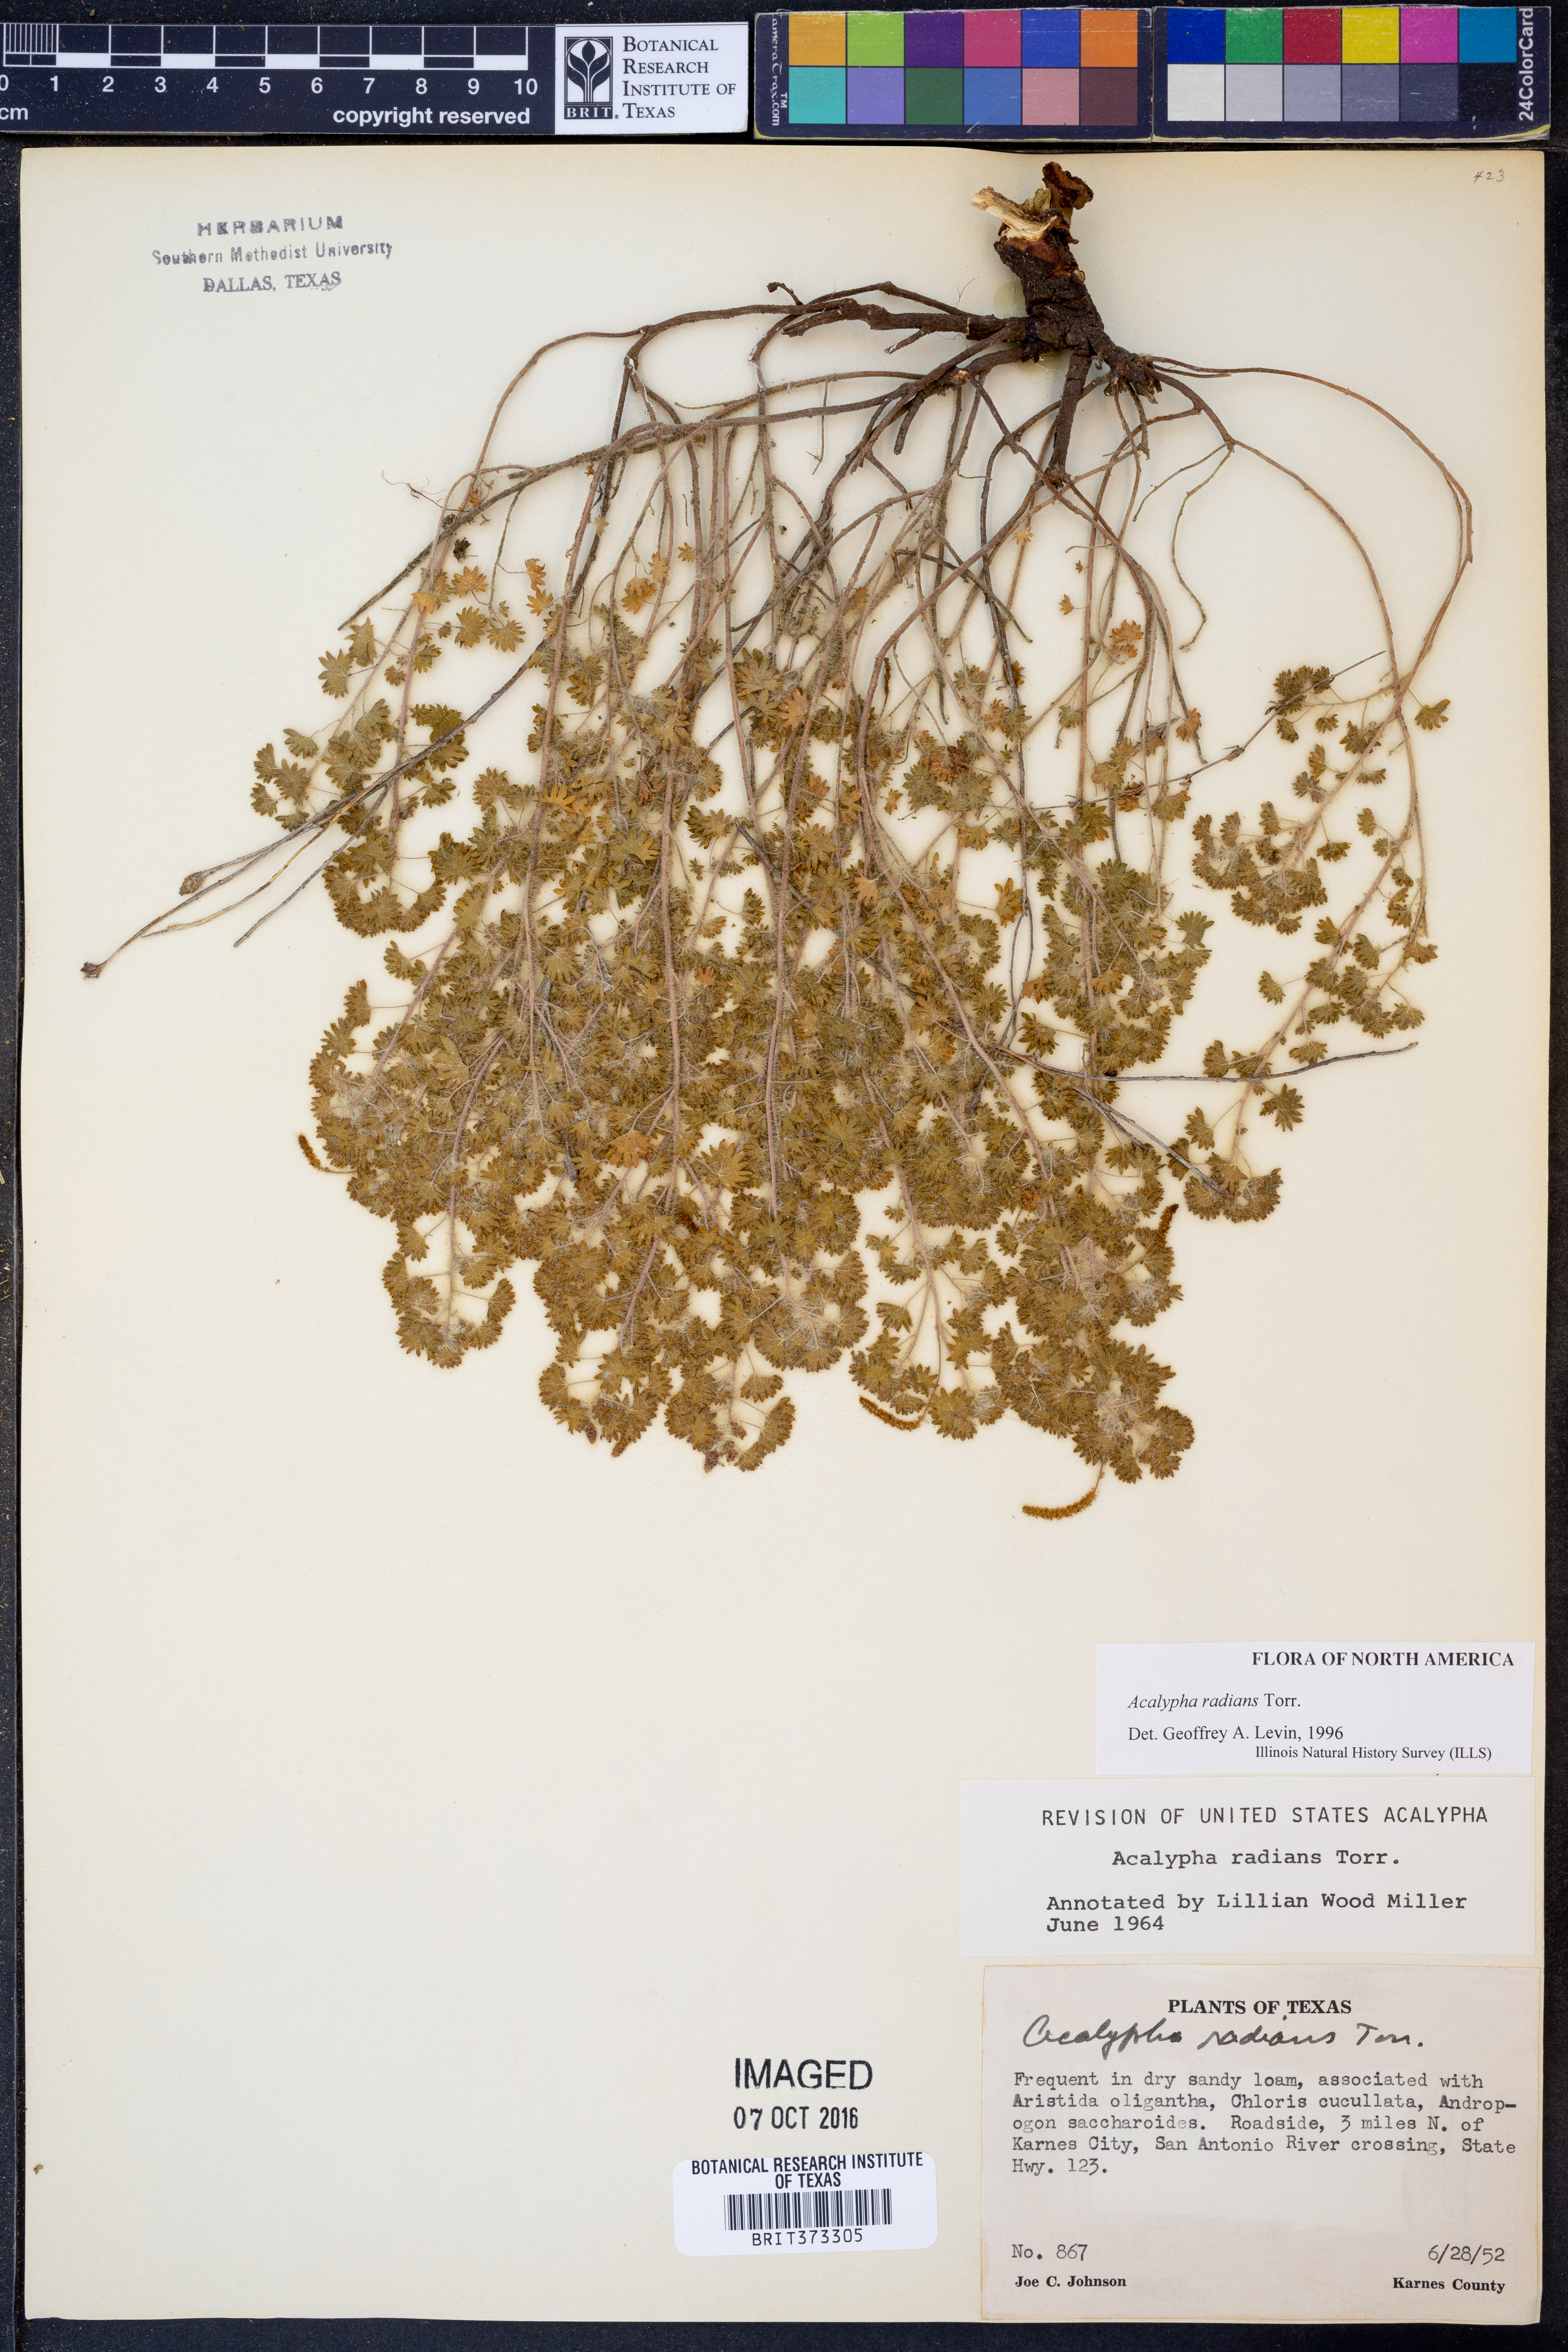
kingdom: Plantae
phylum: Tracheophyta
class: Magnoliopsida
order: Malpighiales
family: Euphorbiaceae
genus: Acalypha
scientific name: Acalypha radians
